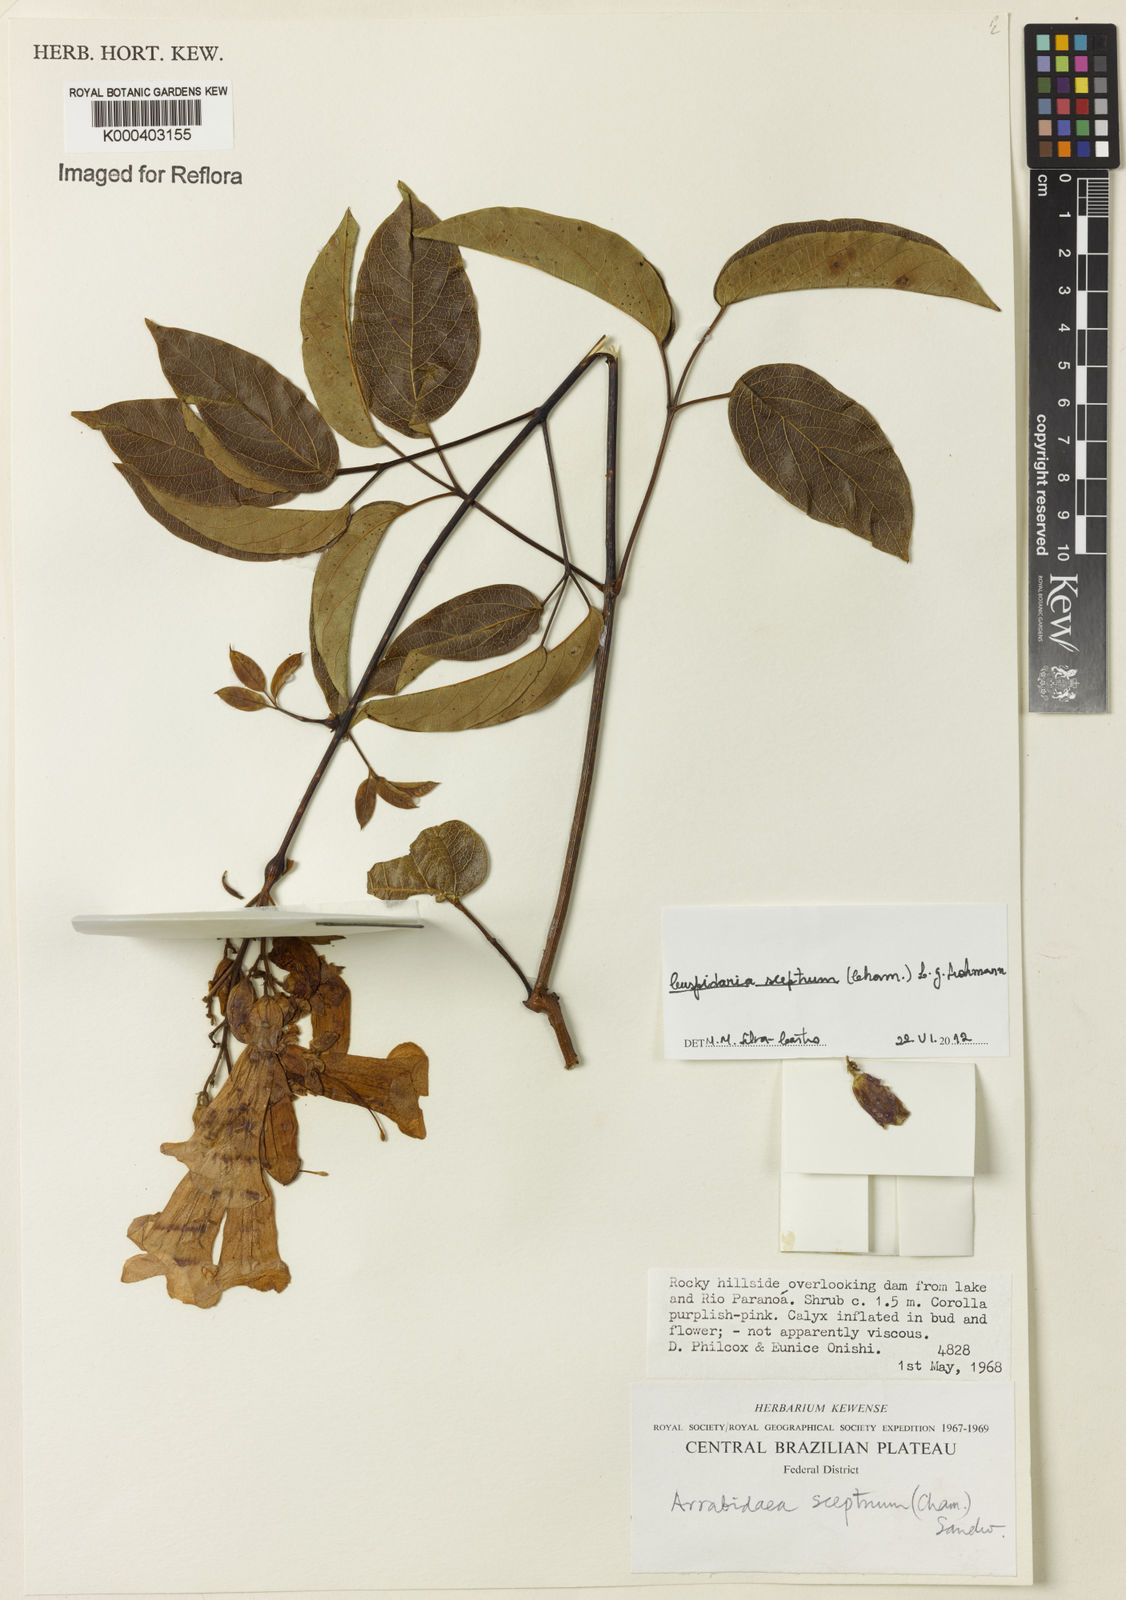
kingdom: Plantae
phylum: Tracheophyta
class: Magnoliopsida
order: Lamiales
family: Bignoniaceae
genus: Cuspidaria
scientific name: Cuspidaria sceptrum
